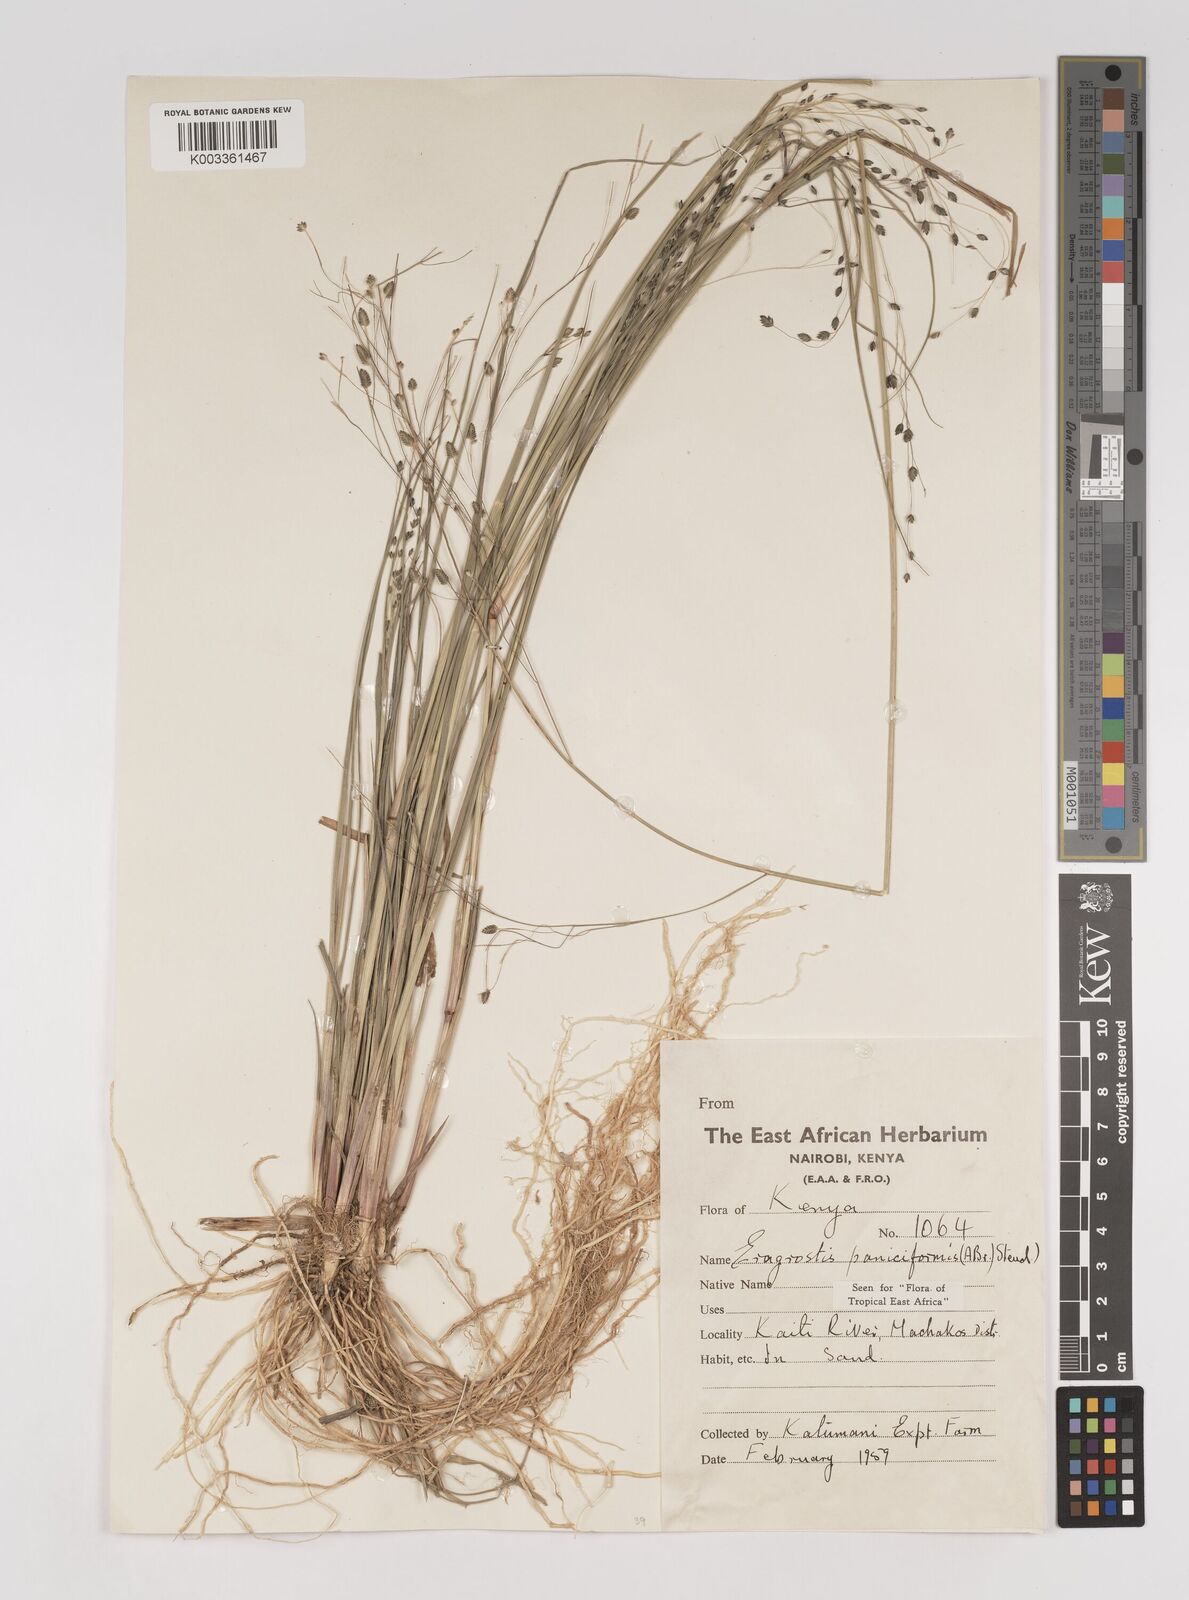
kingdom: Plantae
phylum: Tracheophyta
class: Liliopsida
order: Poales
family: Poaceae
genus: Eragrostis
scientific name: Eragrostis paniciformis
